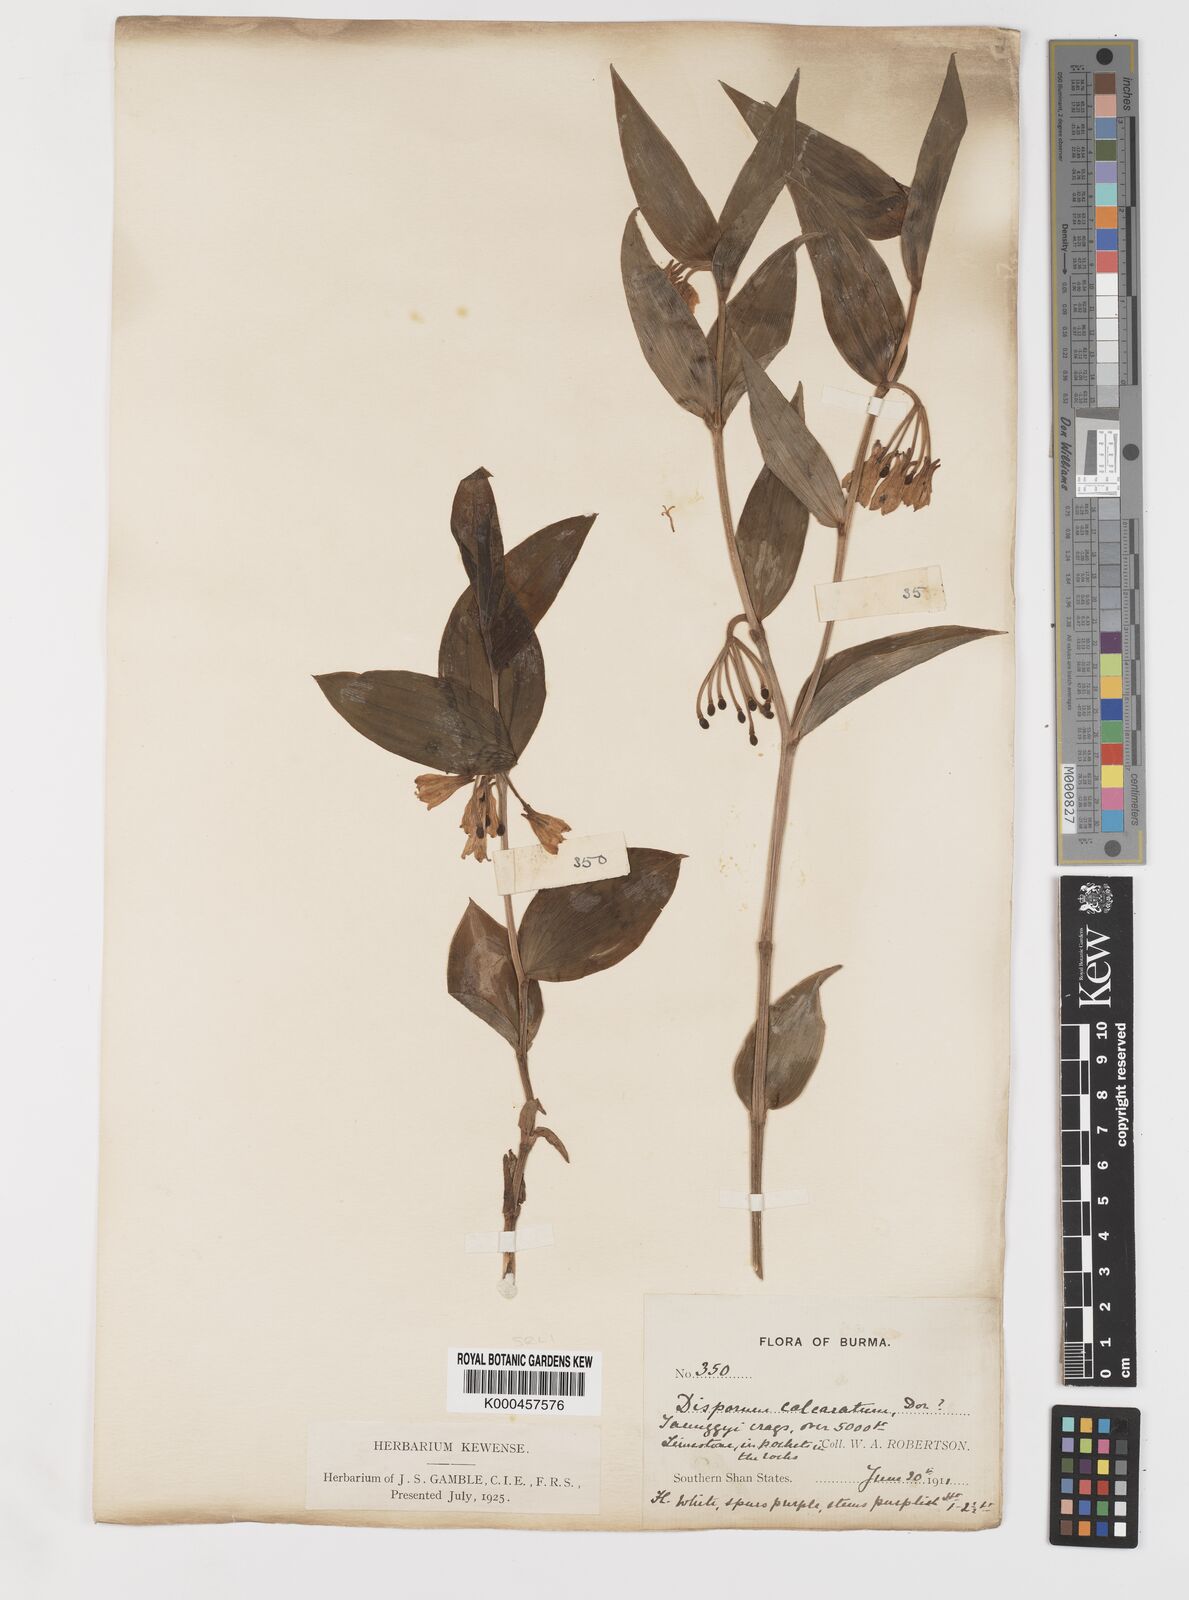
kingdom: Plantae
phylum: Tracheophyta
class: Liliopsida
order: Liliales
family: Colchicaceae
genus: Disporum
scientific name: Disporum calcaratum
